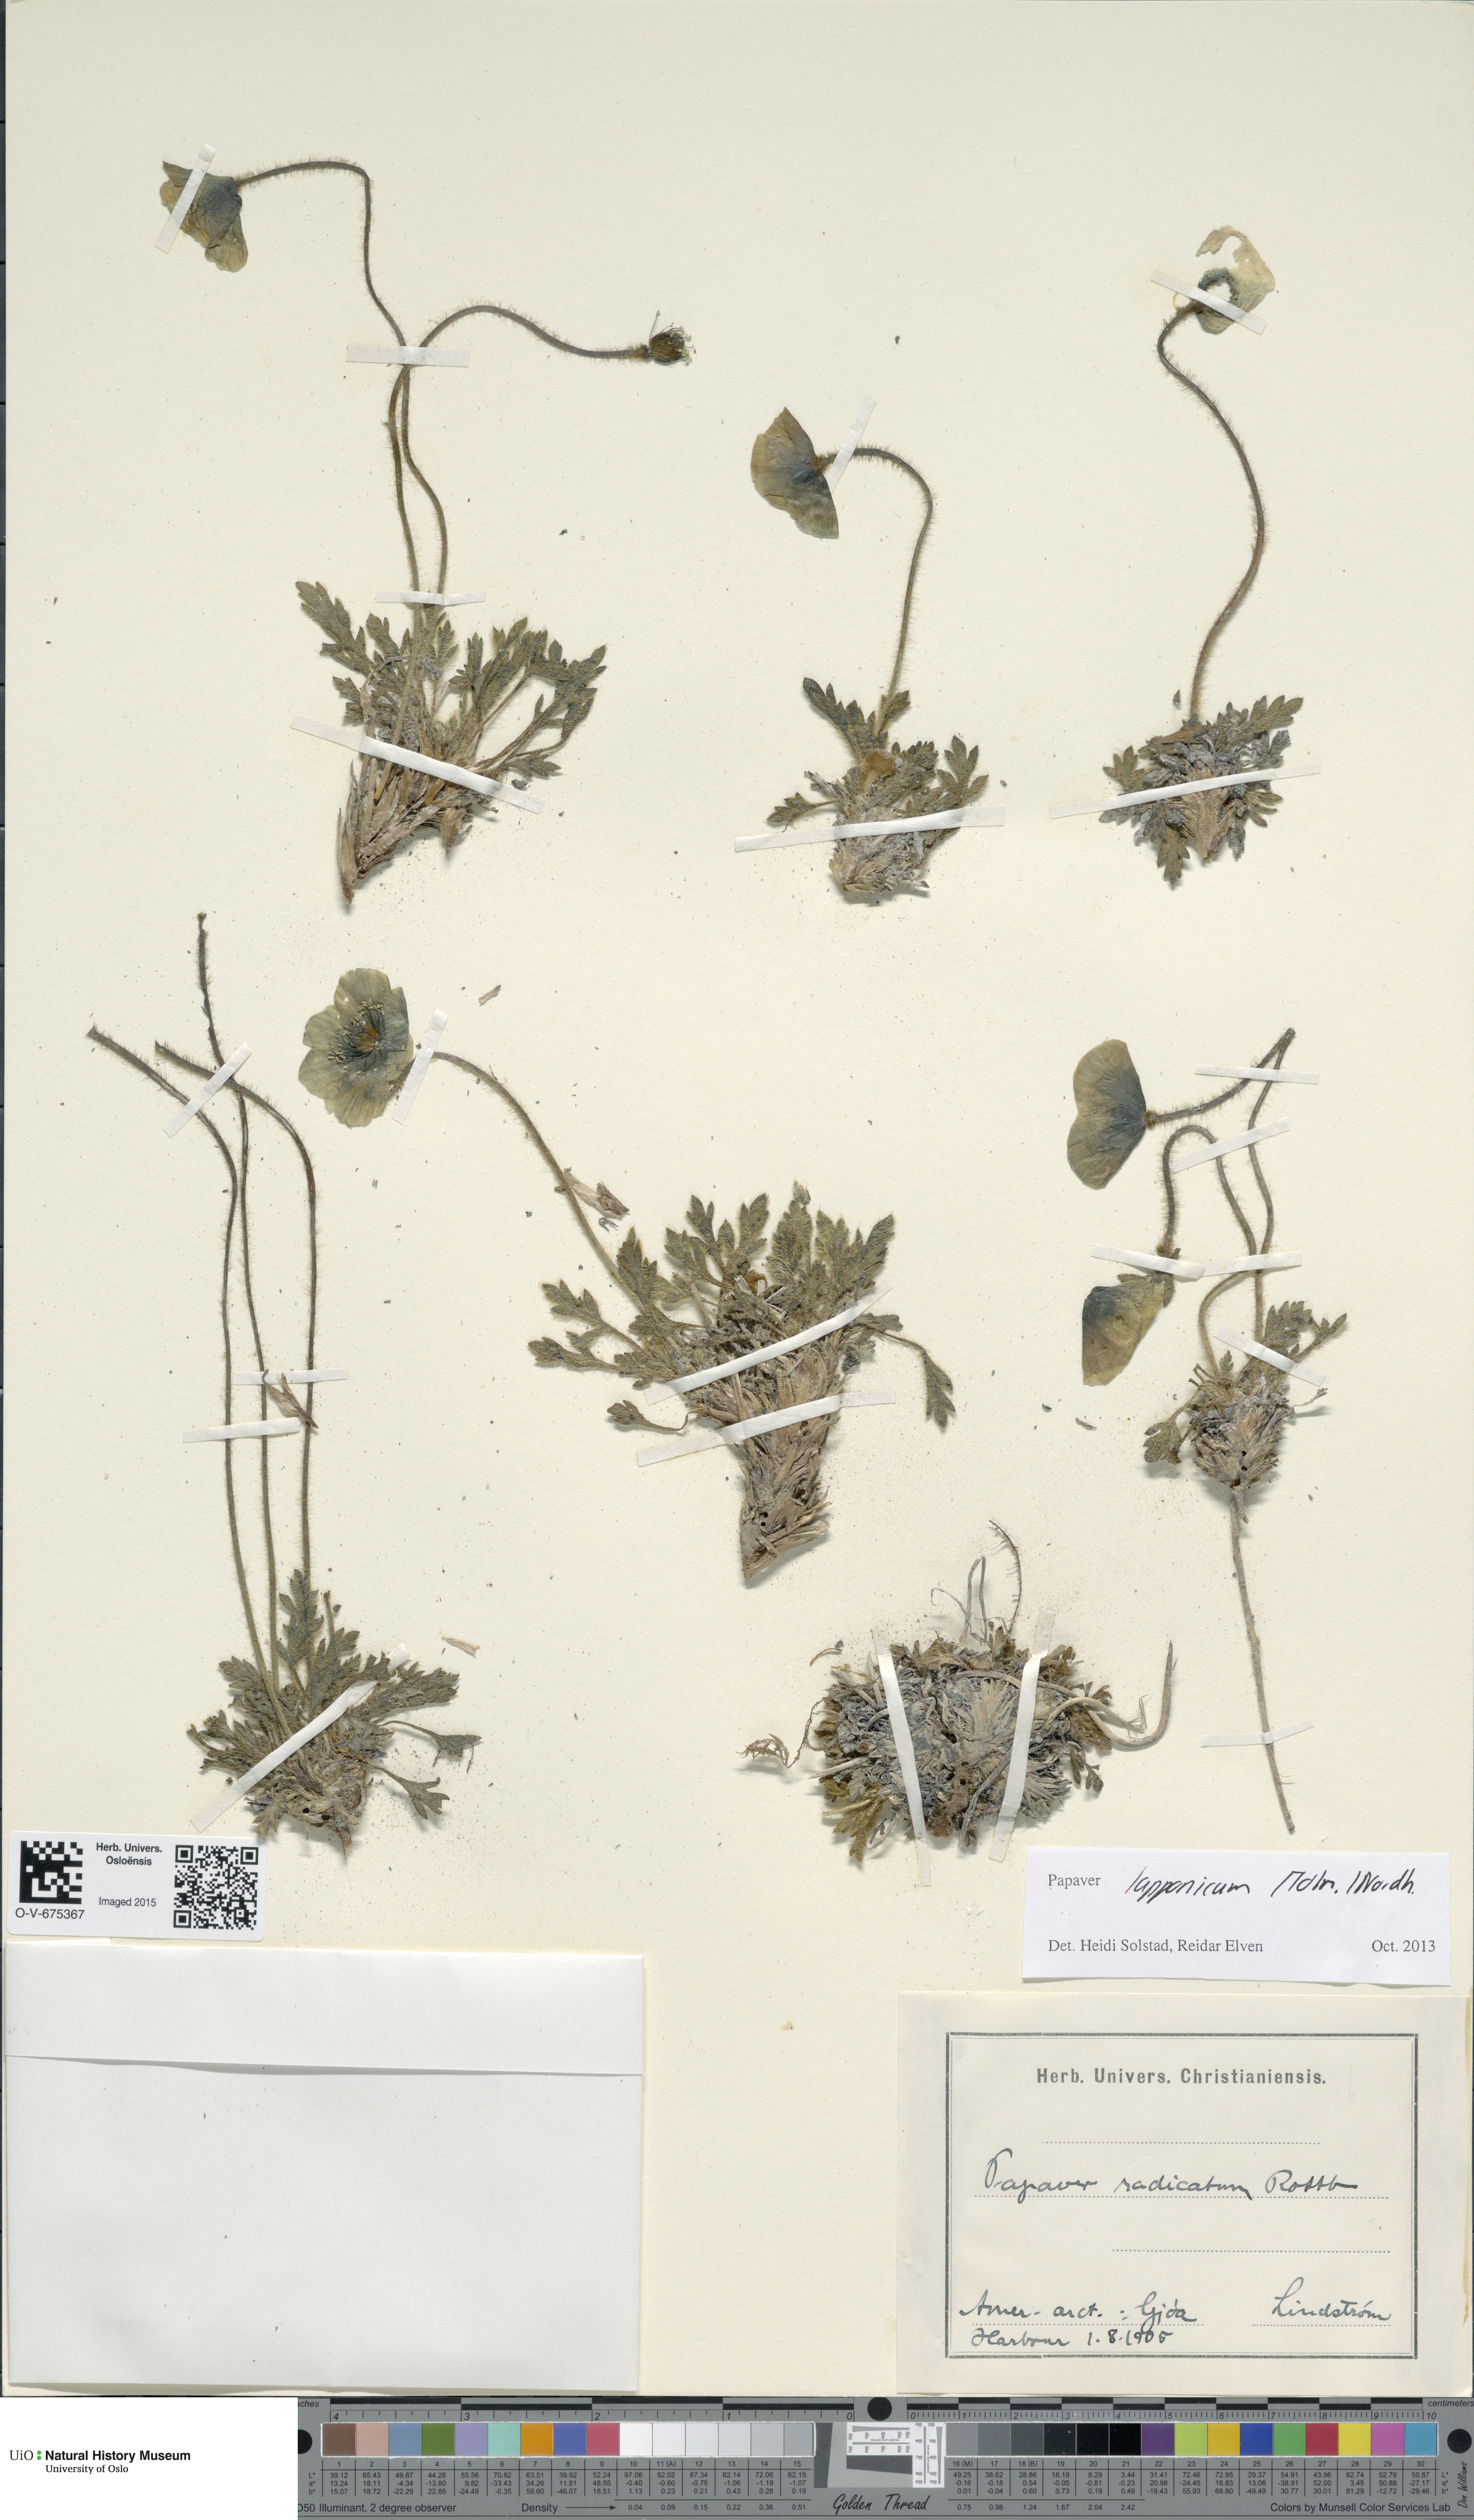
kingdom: Plantae
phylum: Tracheophyta
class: Magnoliopsida
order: Ranunculales
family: Papaveraceae
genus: Papaver
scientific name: Papaver radicatum
